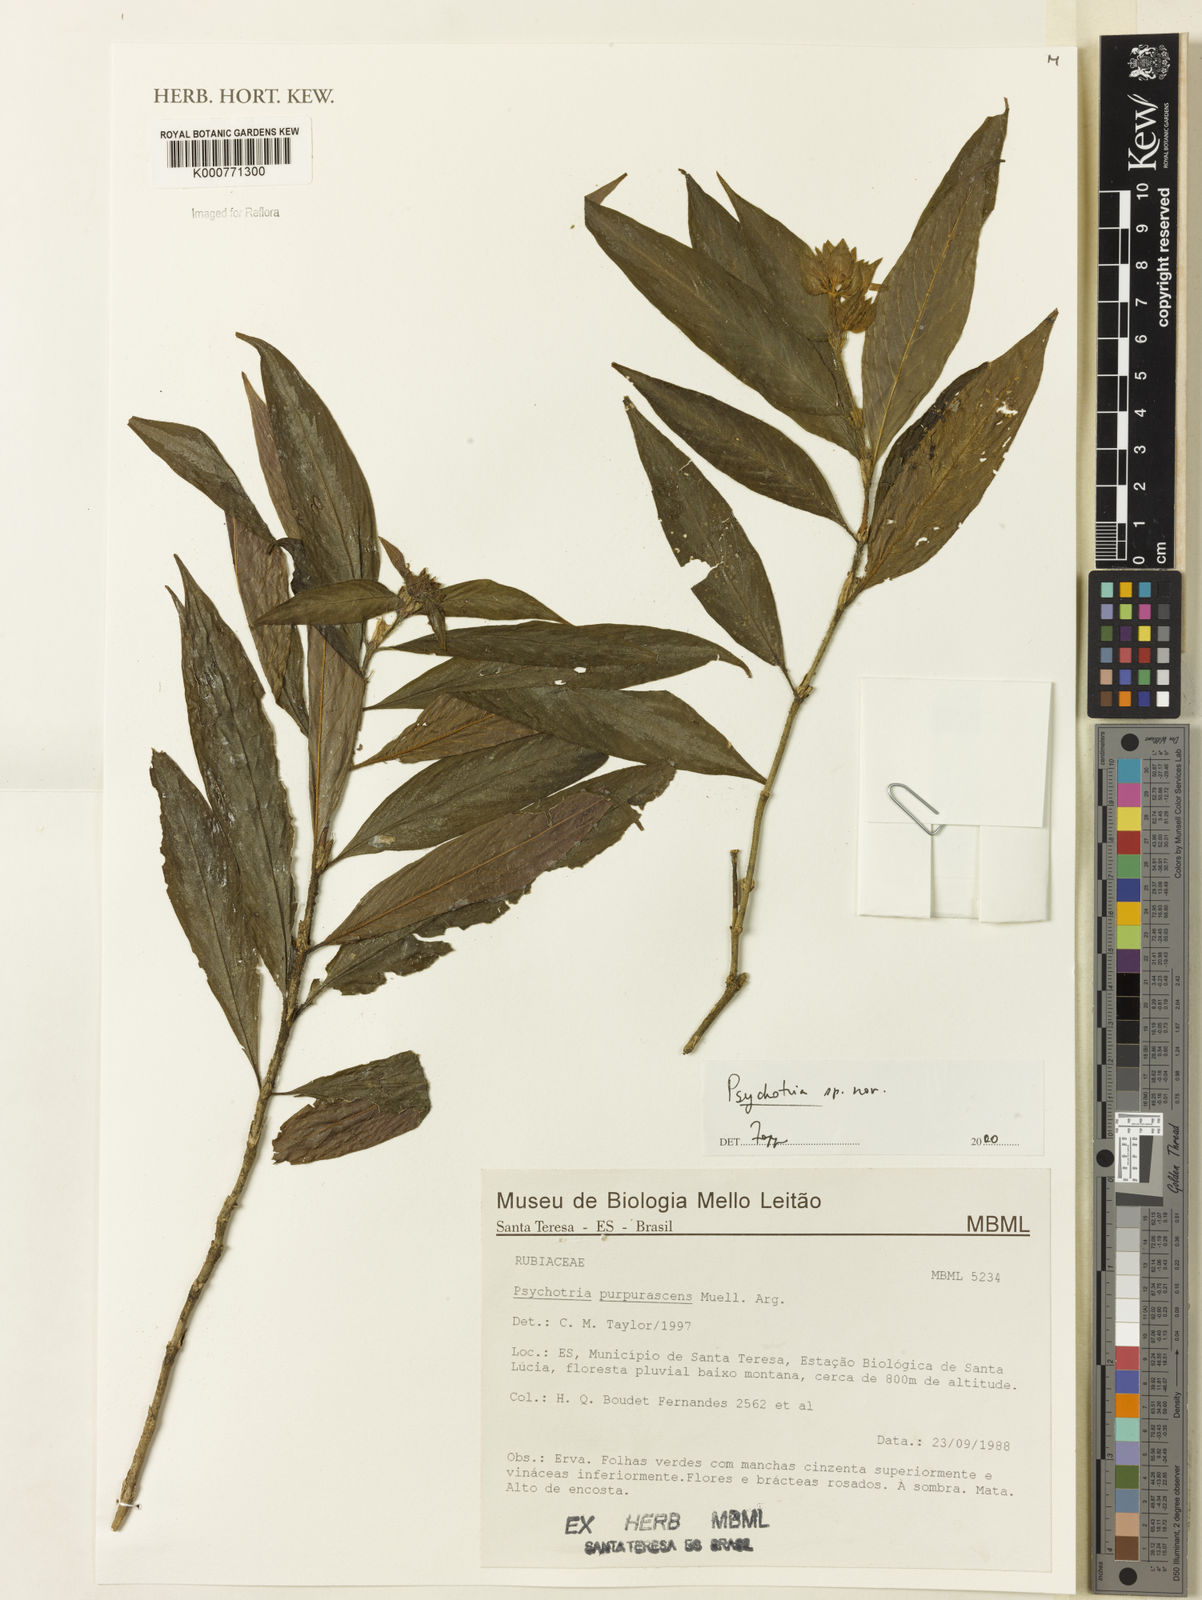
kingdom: Plantae
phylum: Tracheophyta
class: Magnoliopsida
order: Gentianales
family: Rubiaceae
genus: Psychotria
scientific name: Psychotria
